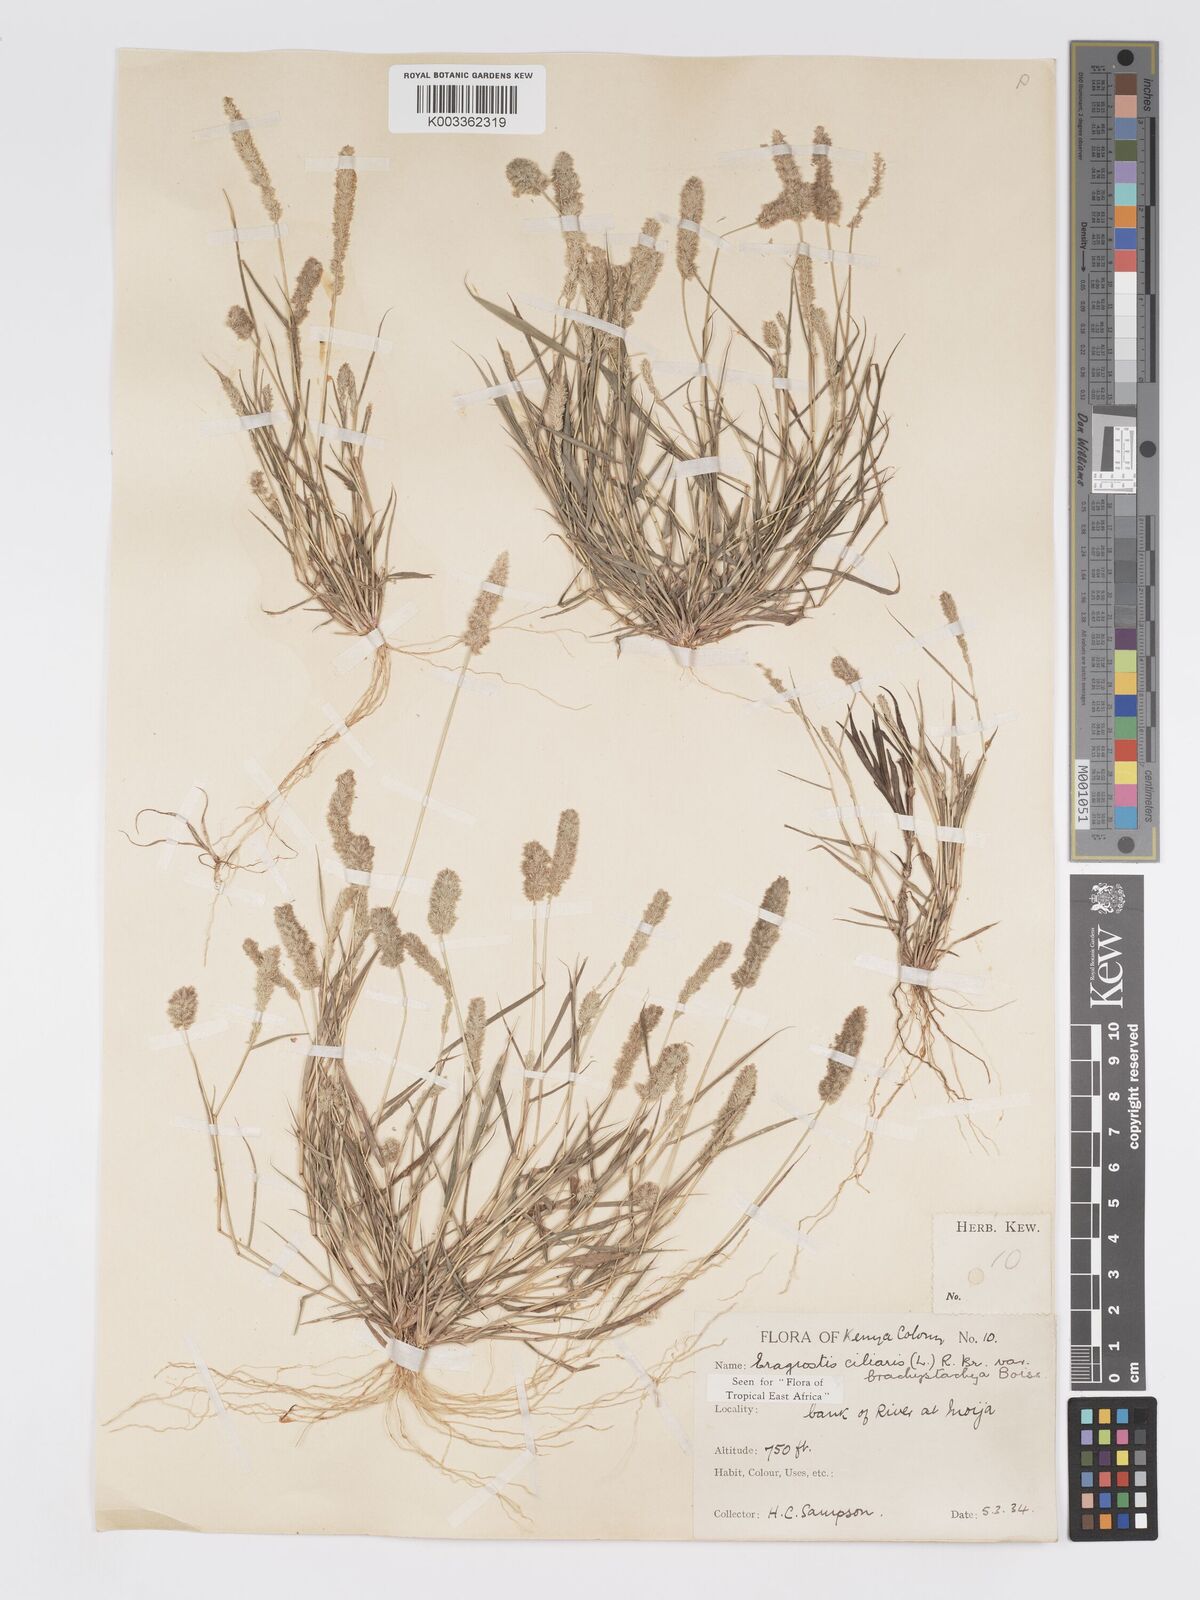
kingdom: Plantae
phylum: Tracheophyta
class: Liliopsida
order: Poales
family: Poaceae
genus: Eragrostis
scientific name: Eragrostis ciliaris
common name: Gophertail lovegrass
